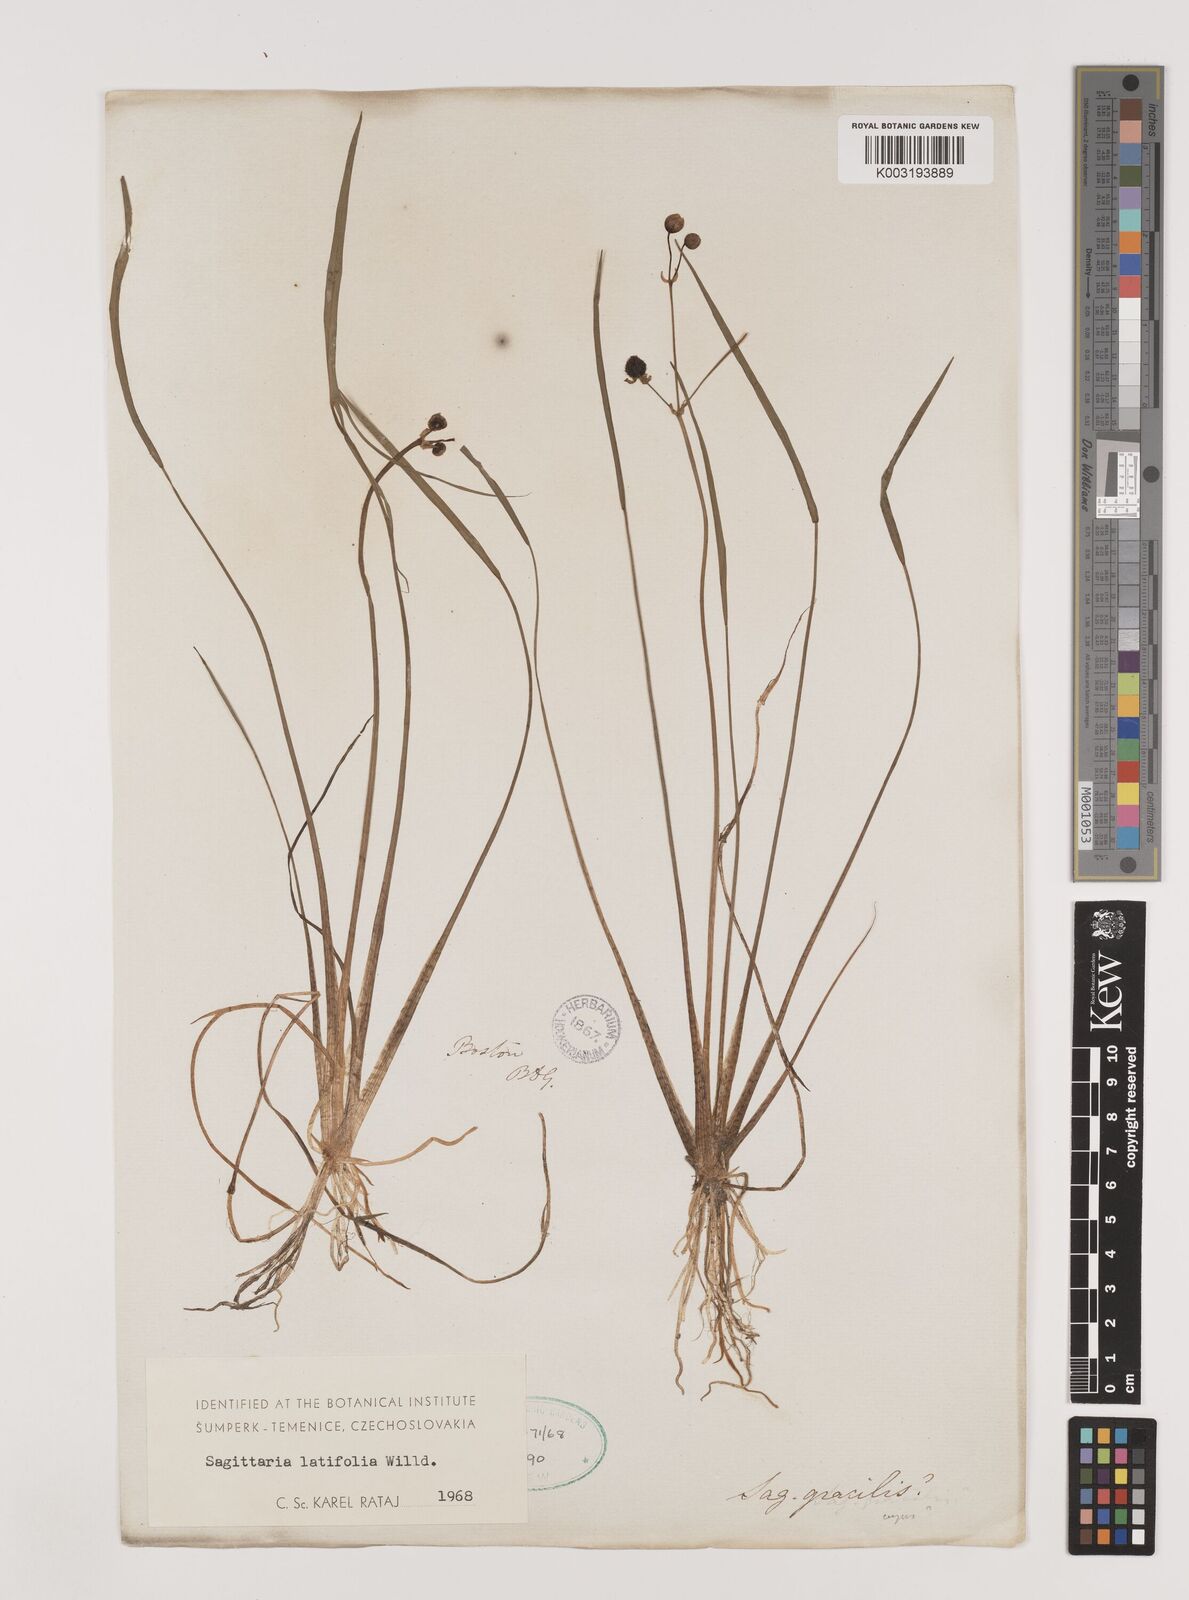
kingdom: Plantae
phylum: Tracheophyta
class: Liliopsida
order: Alismatales
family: Alismataceae
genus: Sagittaria
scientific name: Sagittaria latifolia
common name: Duck-potato
